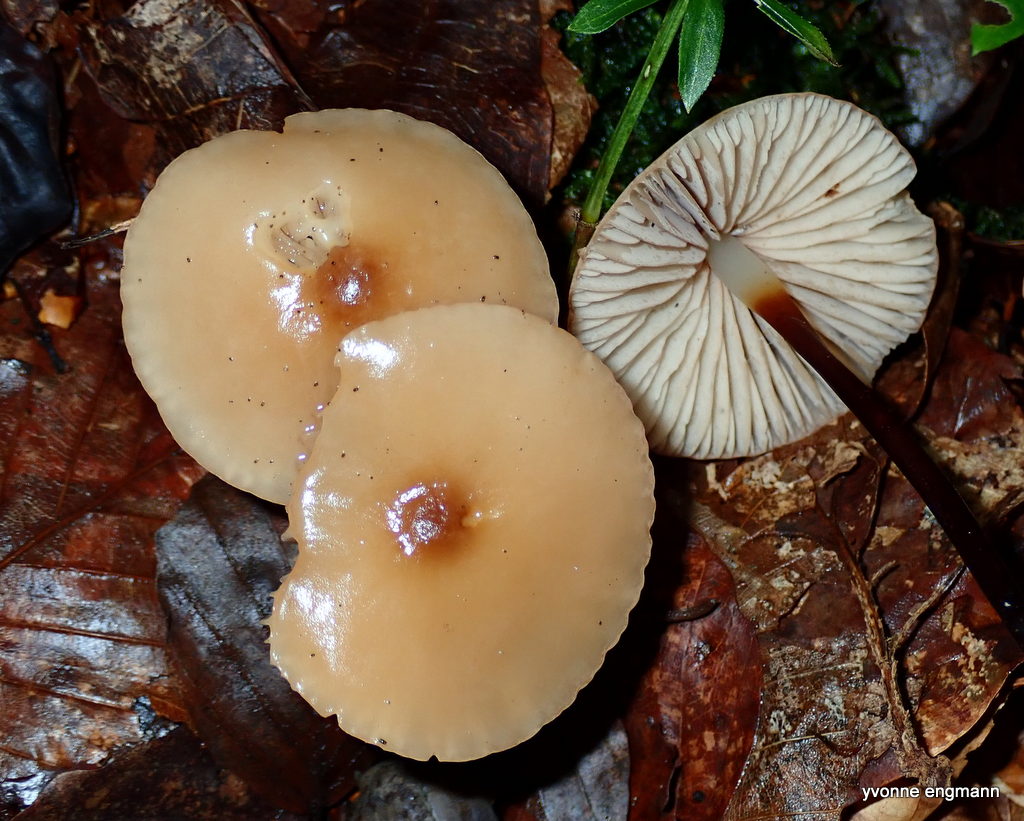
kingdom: Fungi
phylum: Basidiomycota
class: Agaricomycetes
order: Agaricales
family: Marasmiaceae
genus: Marasmius
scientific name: Marasmius cohaerens
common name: hornstokket bruskhat
